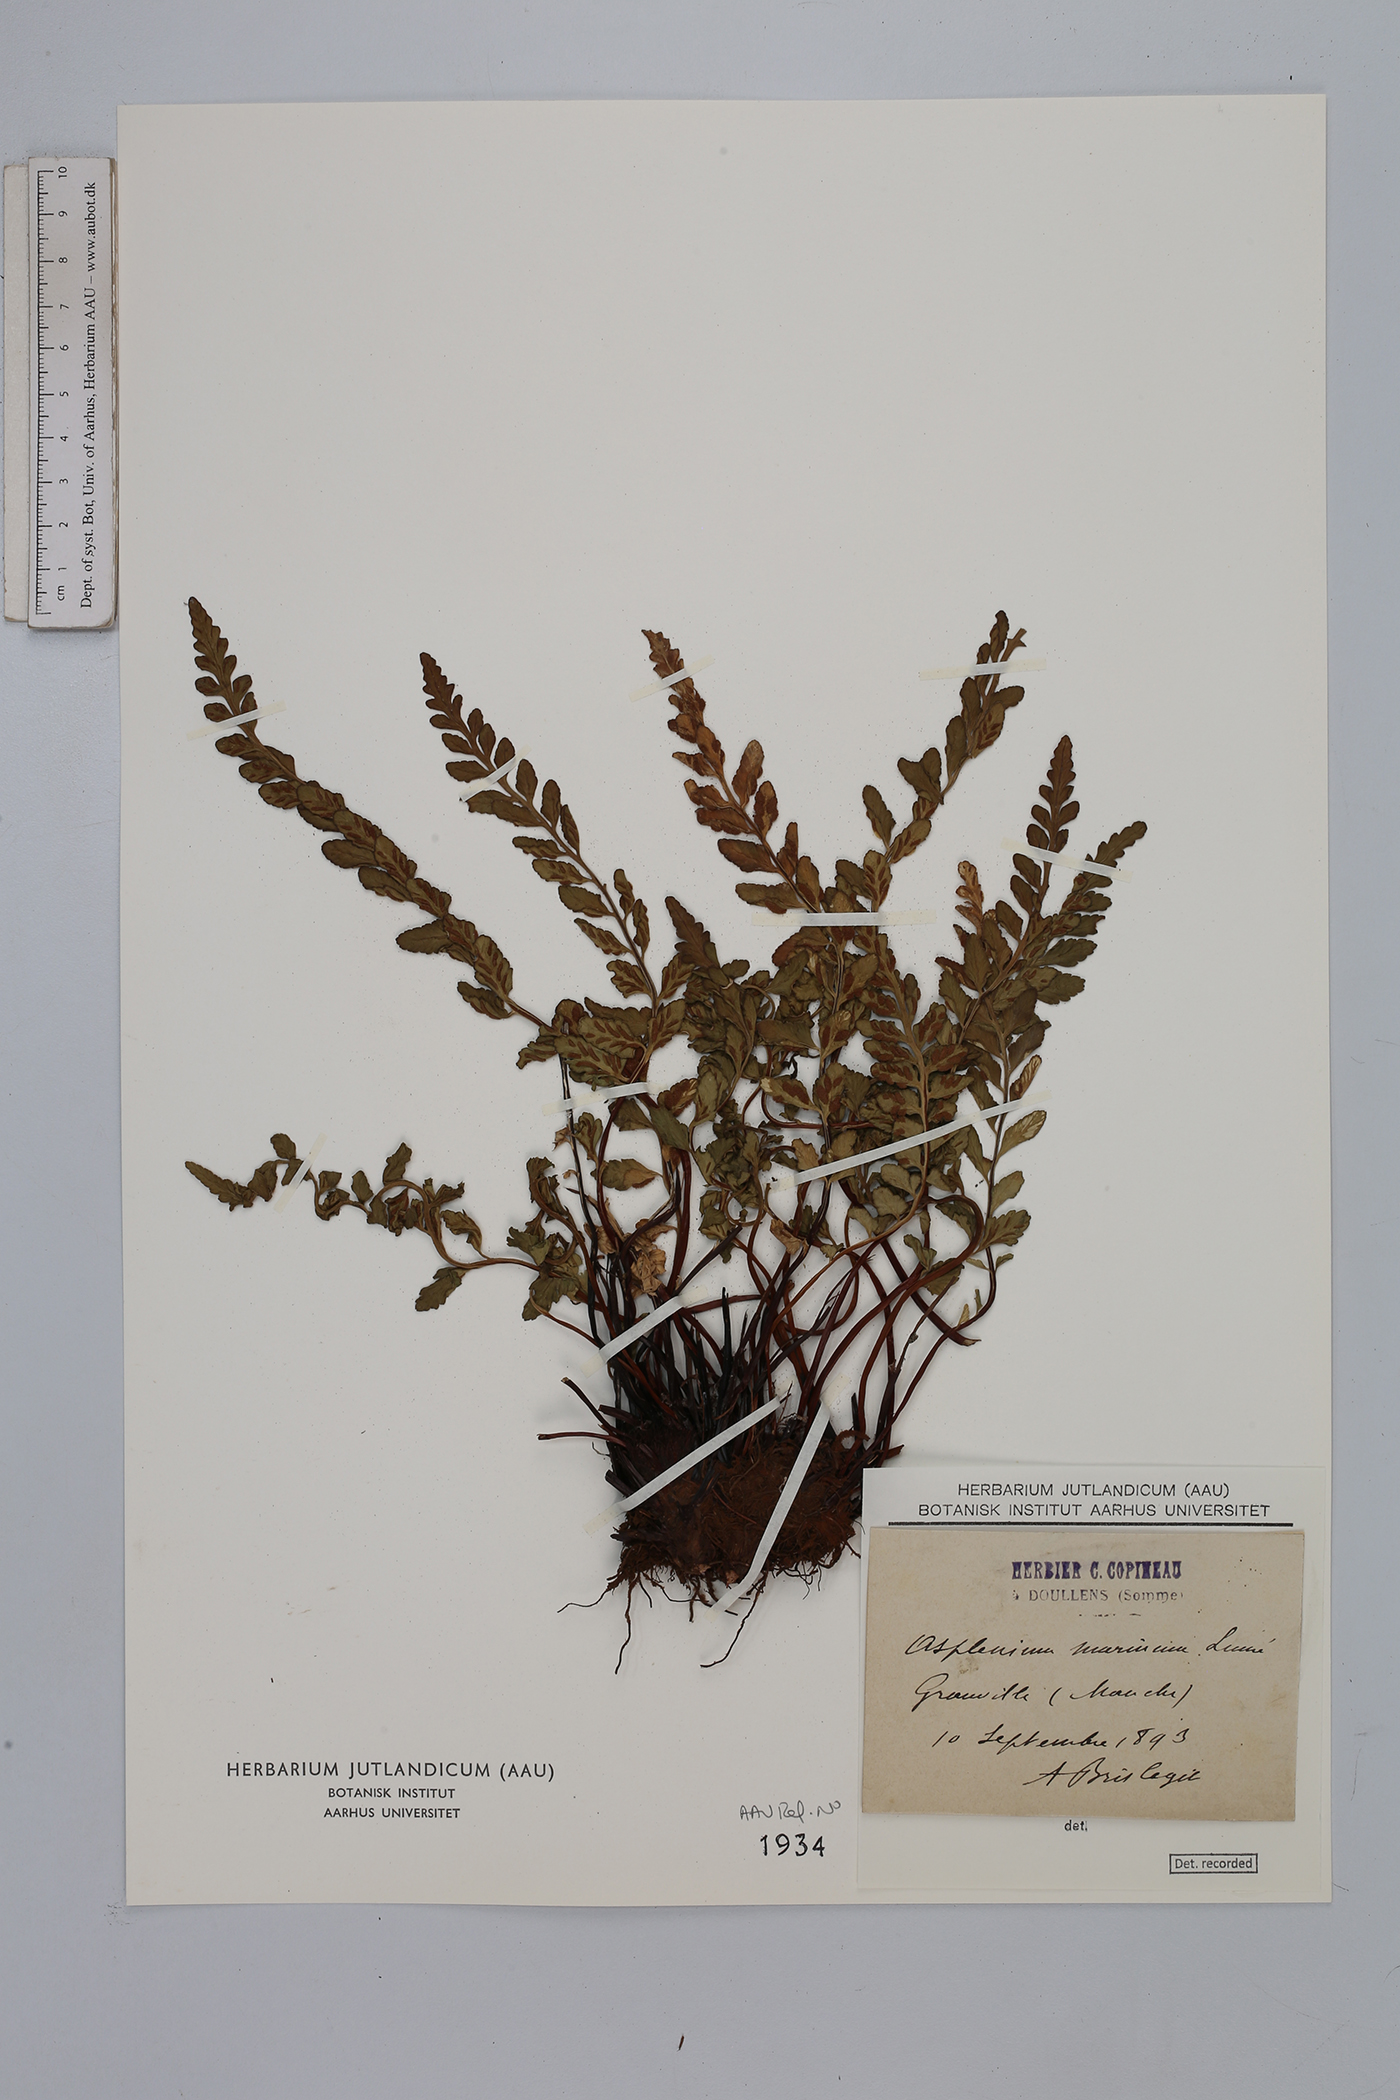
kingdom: Plantae
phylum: Tracheophyta
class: Polypodiopsida
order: Polypodiales
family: Aspleniaceae
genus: Asplenium
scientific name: Asplenium marinum
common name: Sea spleenwort
